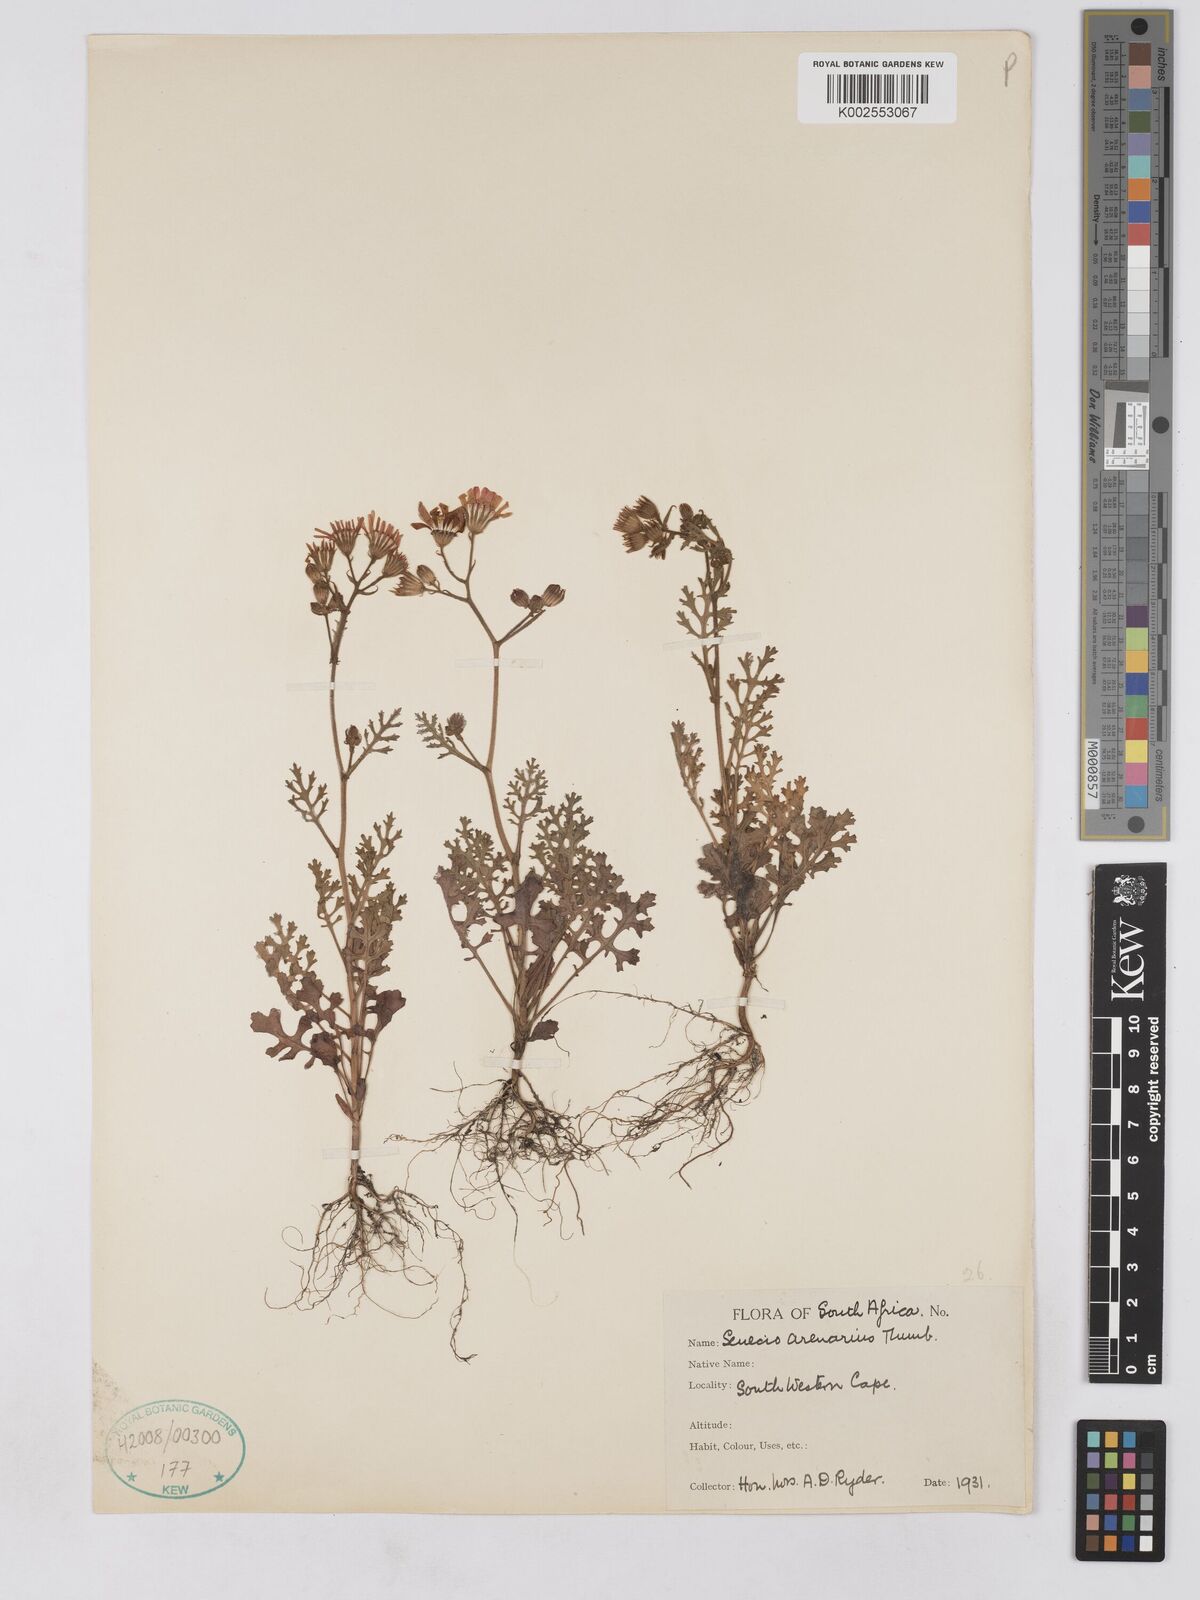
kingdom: Plantae
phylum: Tracheophyta
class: Magnoliopsida
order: Asterales
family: Asteraceae
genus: Senecio
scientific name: Senecio arenarius
